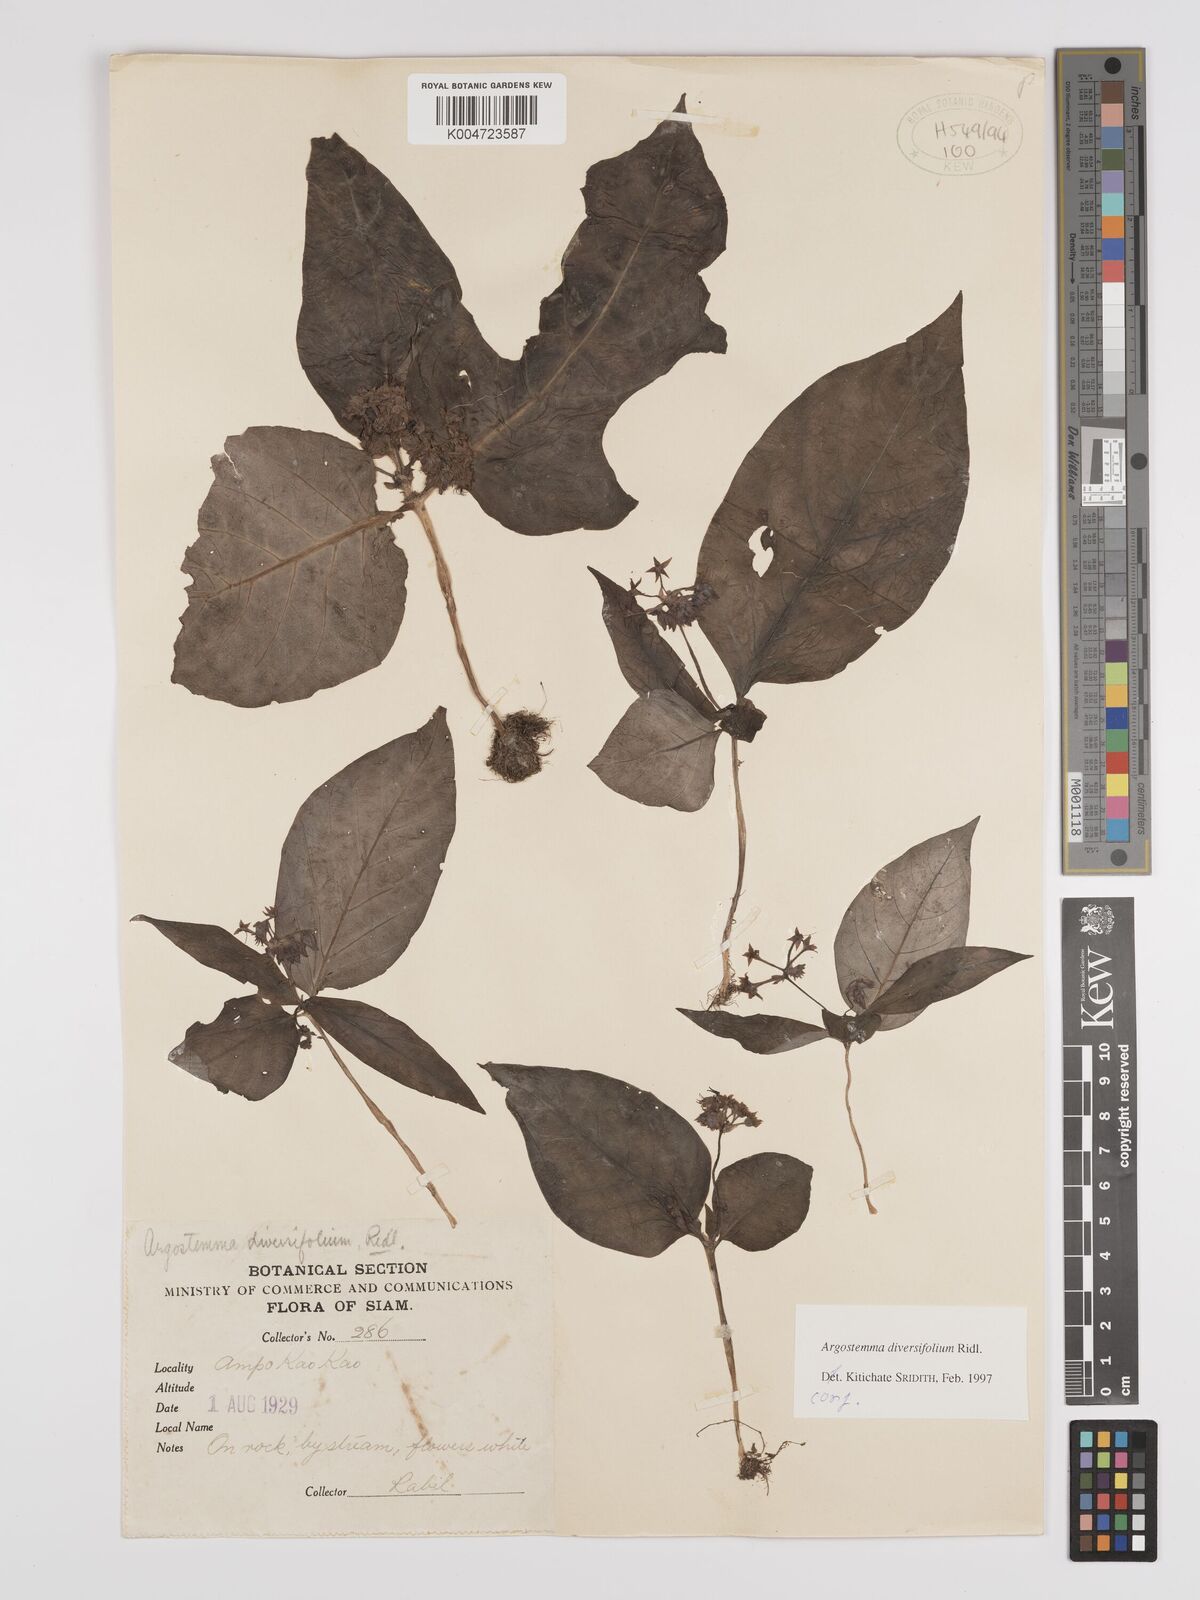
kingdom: Plantae
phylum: Tracheophyta
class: Magnoliopsida
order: Gentianales
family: Rubiaceae
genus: Argostemma
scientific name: Argostemma diversifolium
